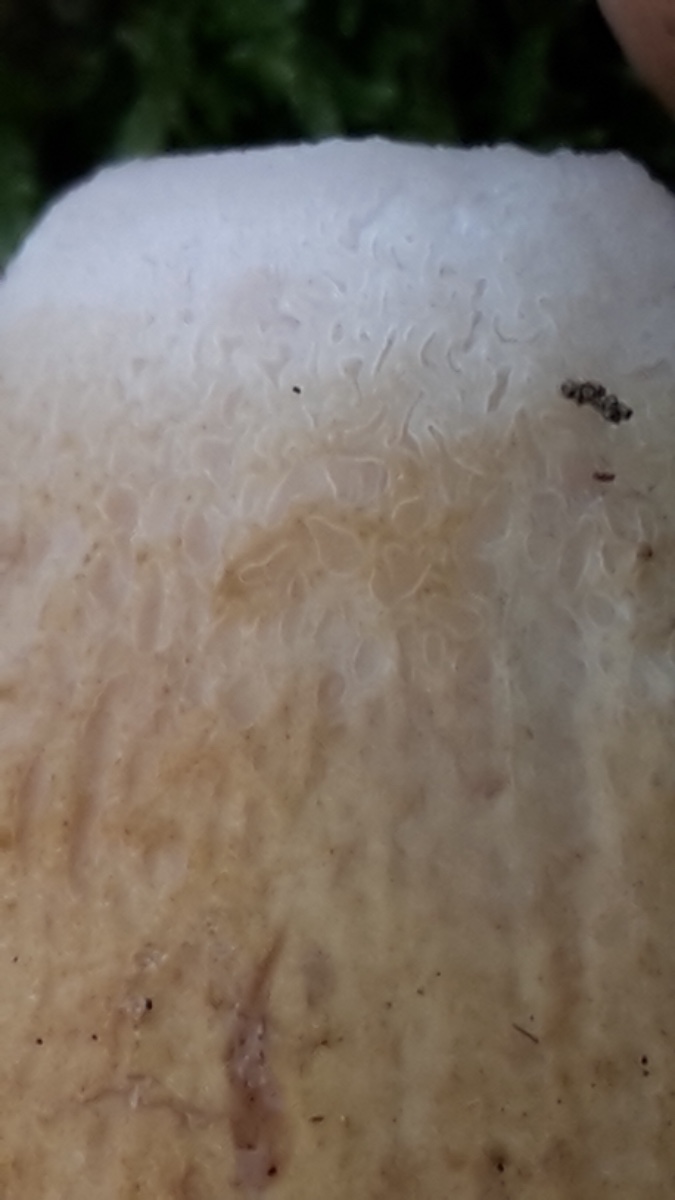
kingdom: Fungi
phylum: Basidiomycota
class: Agaricomycetes
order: Boletales
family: Boletaceae
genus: Tylopilus
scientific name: Tylopilus felleus
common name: galderørhat
